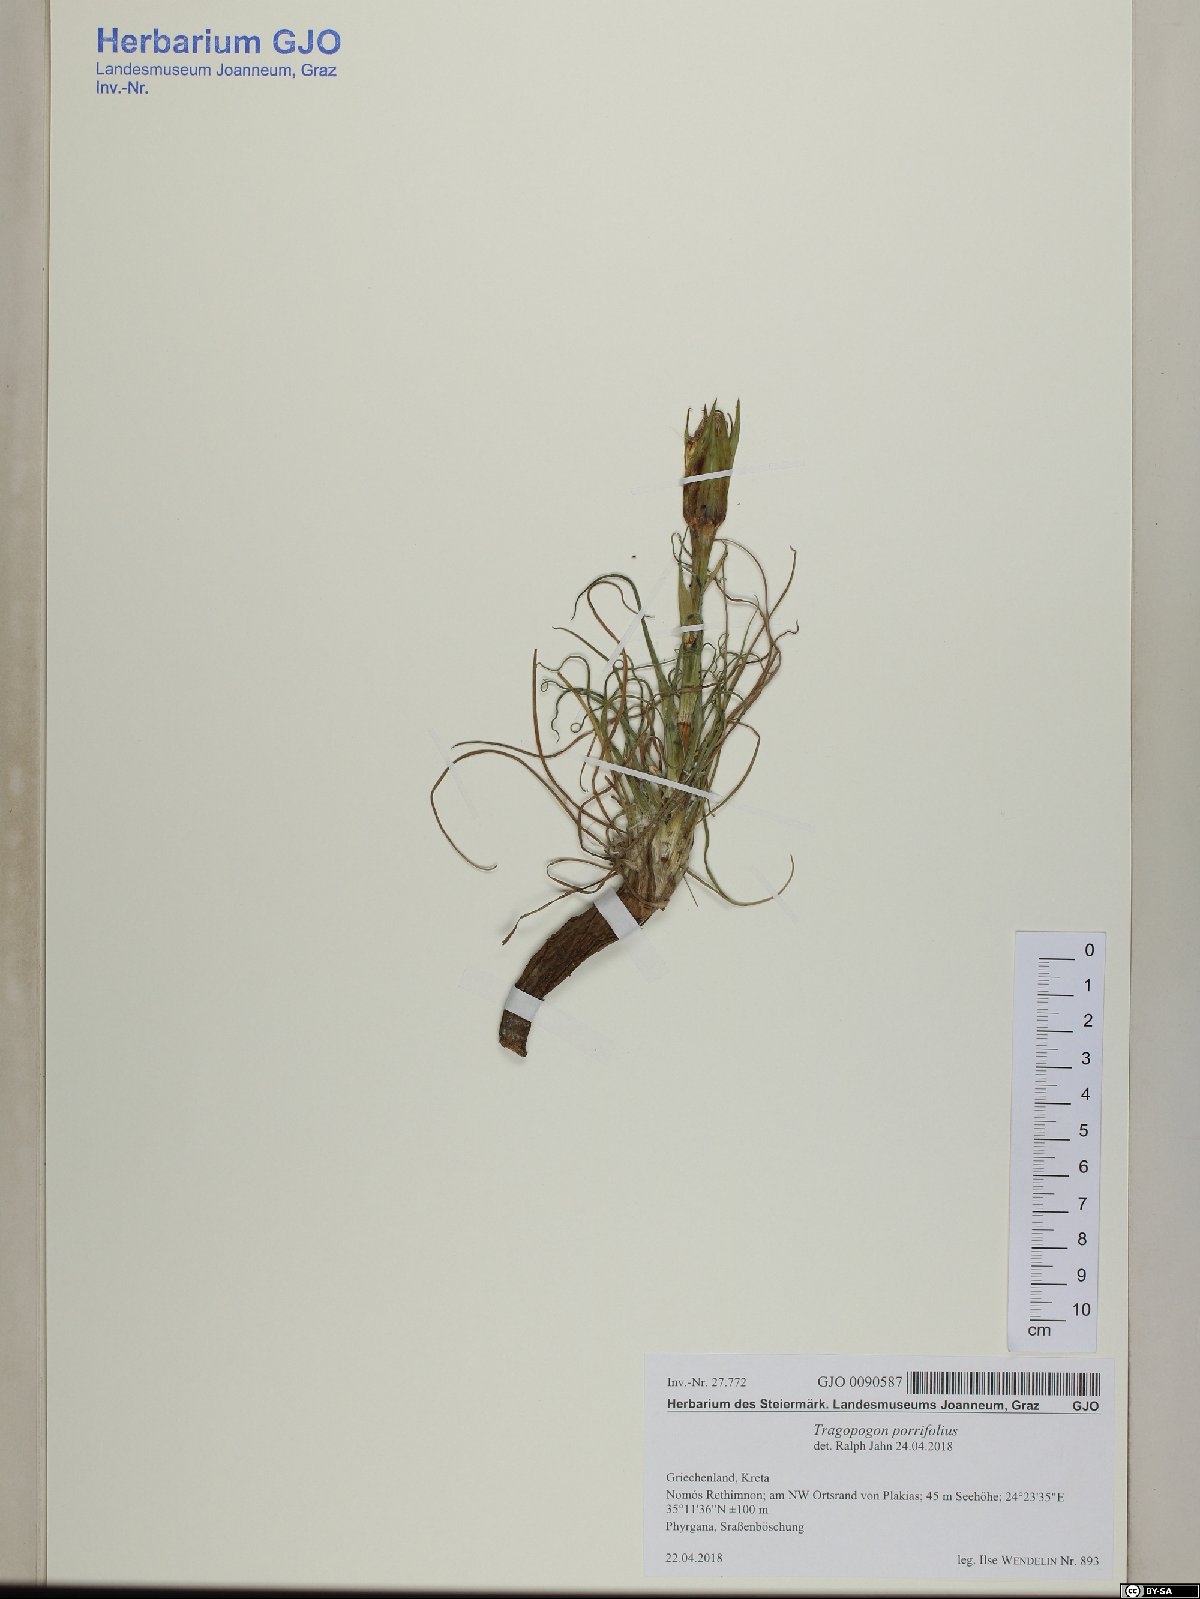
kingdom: Plantae
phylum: Tracheophyta
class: Magnoliopsida
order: Asterales
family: Asteraceae
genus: Tragopogon
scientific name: Tragopogon porrifolius
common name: Salsify
